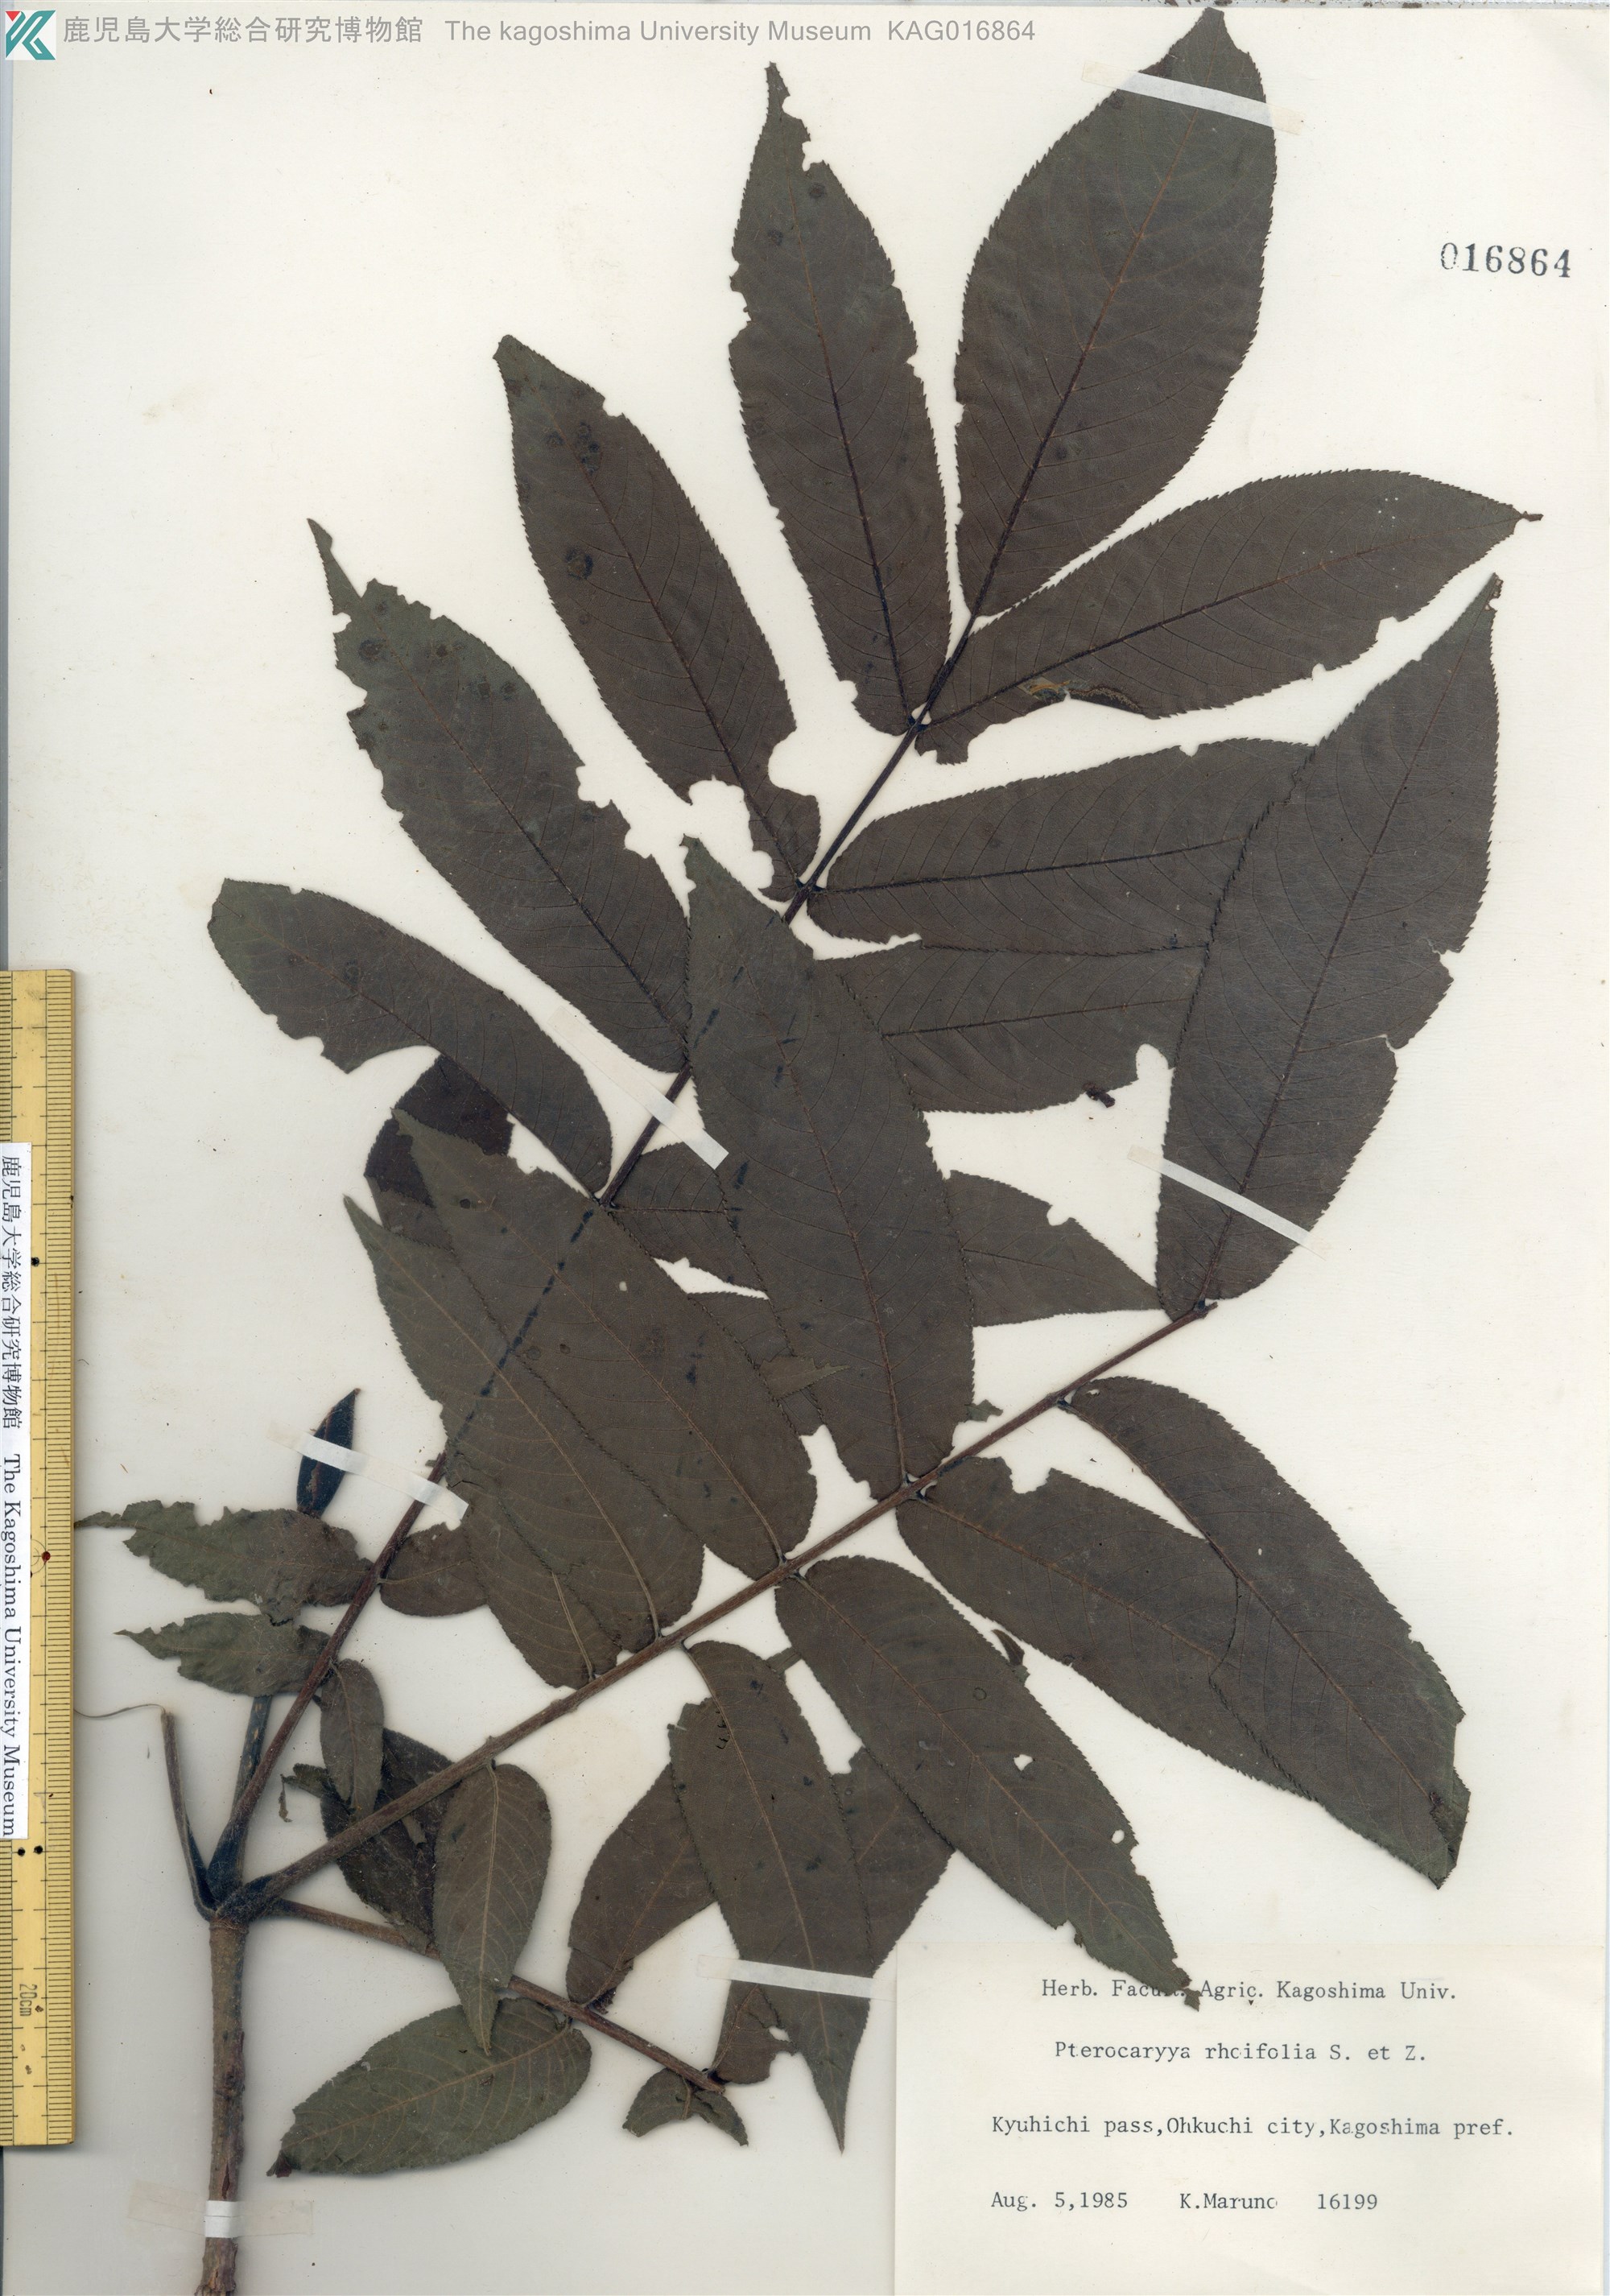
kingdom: Plantae
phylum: Tracheophyta
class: Magnoliopsida
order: Fagales
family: Juglandaceae
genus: Pterocarya
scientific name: Pterocarya rhoifolia
